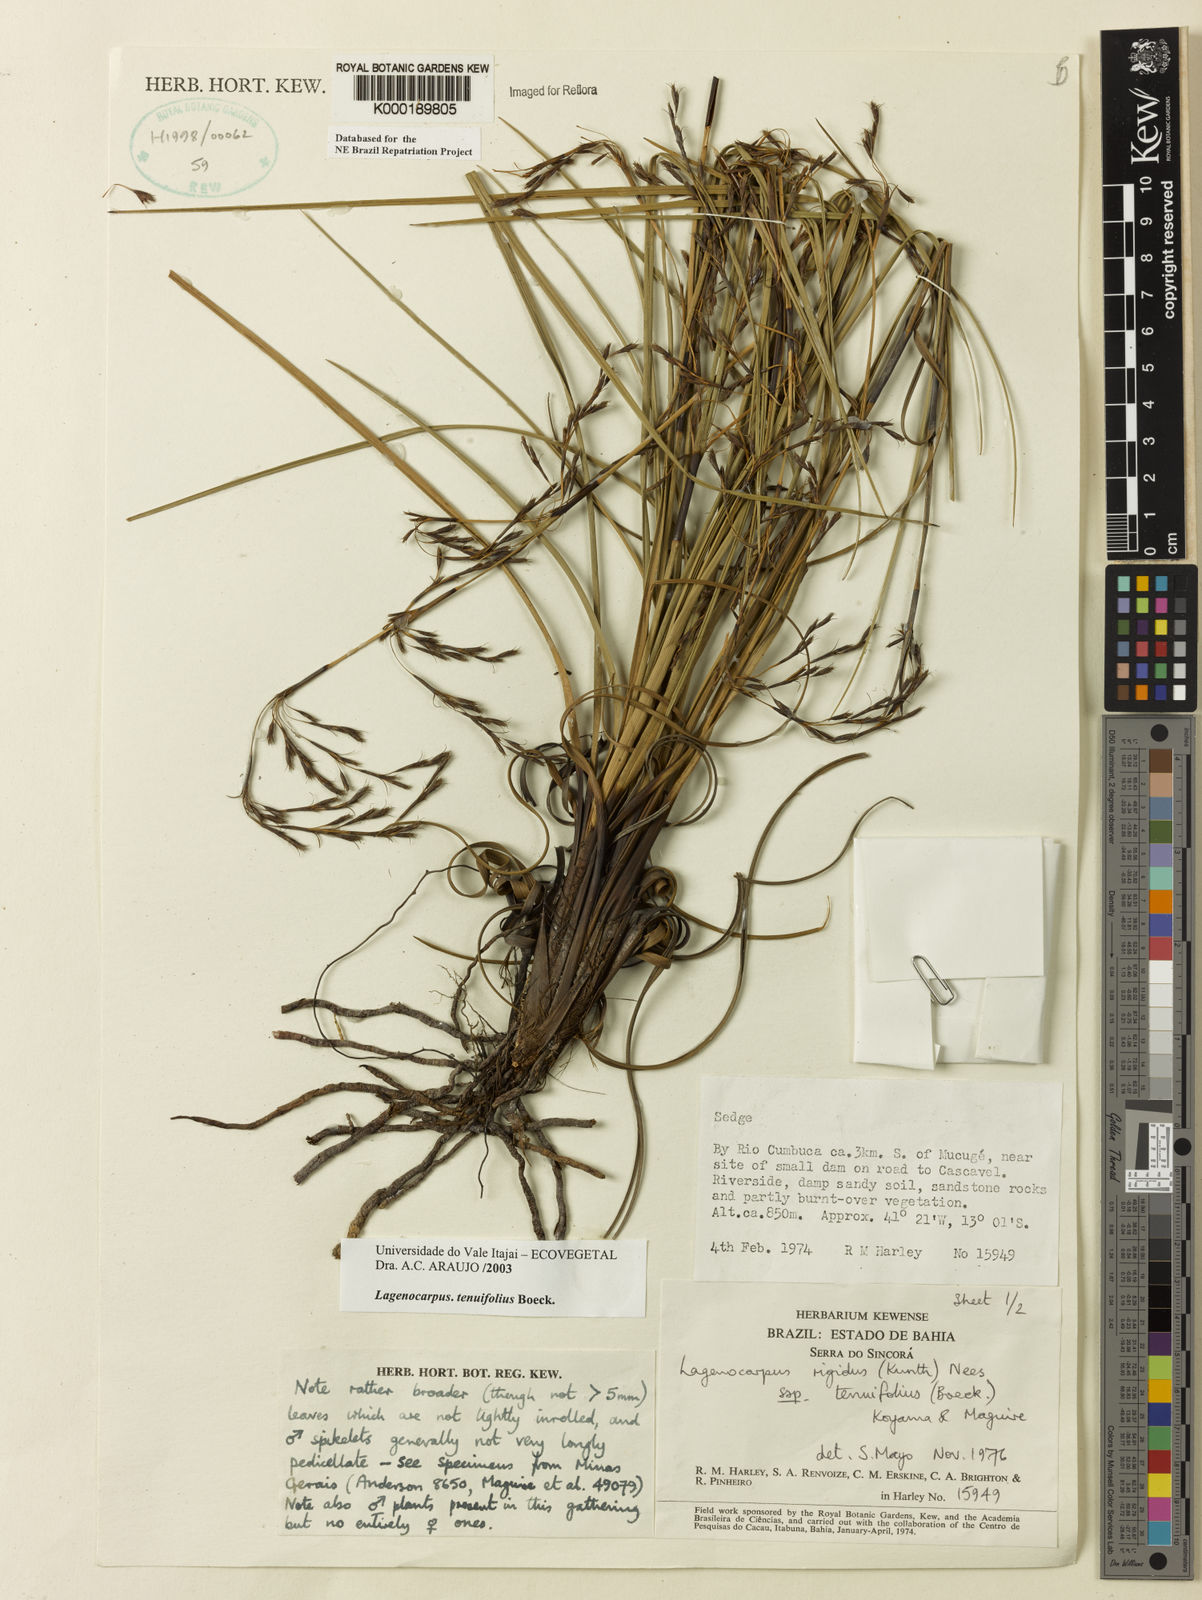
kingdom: Plantae
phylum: Tracheophyta
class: Liliopsida
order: Poales
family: Cyperaceae
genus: Lagenocarpus
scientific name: Lagenocarpus rigidus
